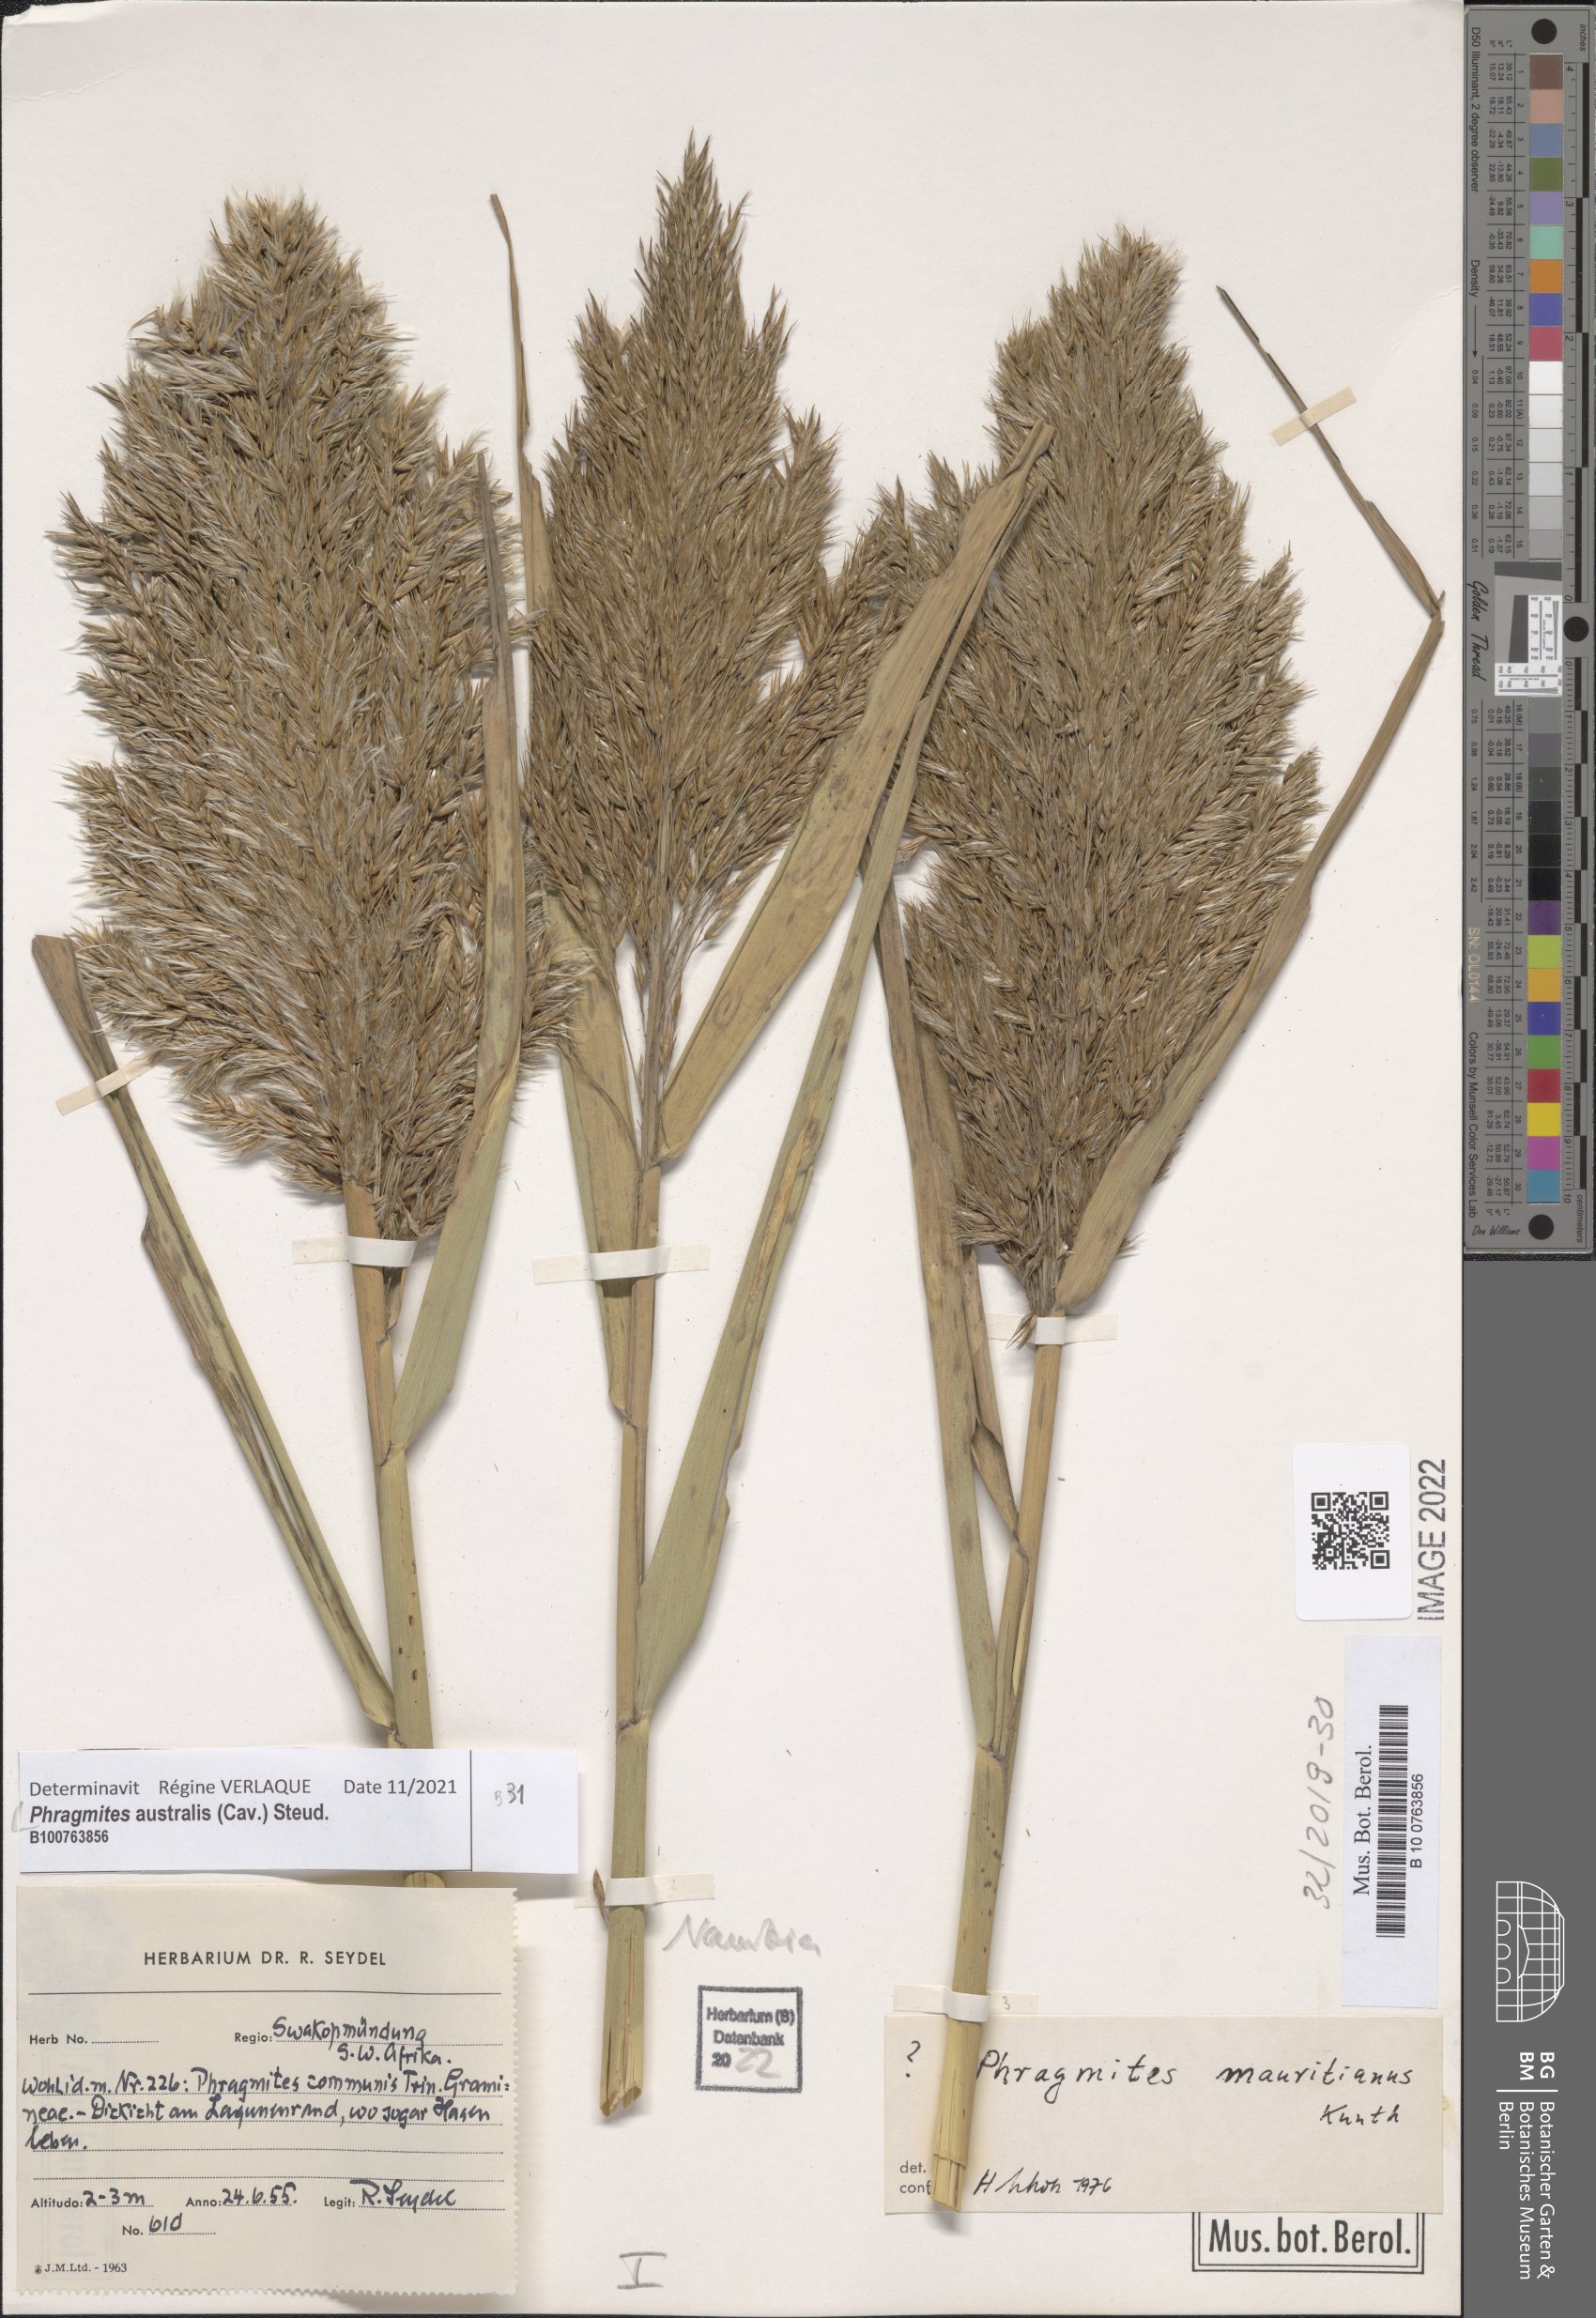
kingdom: Plantae
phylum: Tracheophyta
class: Liliopsida
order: Poales
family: Poaceae
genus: Phragmites
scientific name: Phragmites australis
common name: Common reed
